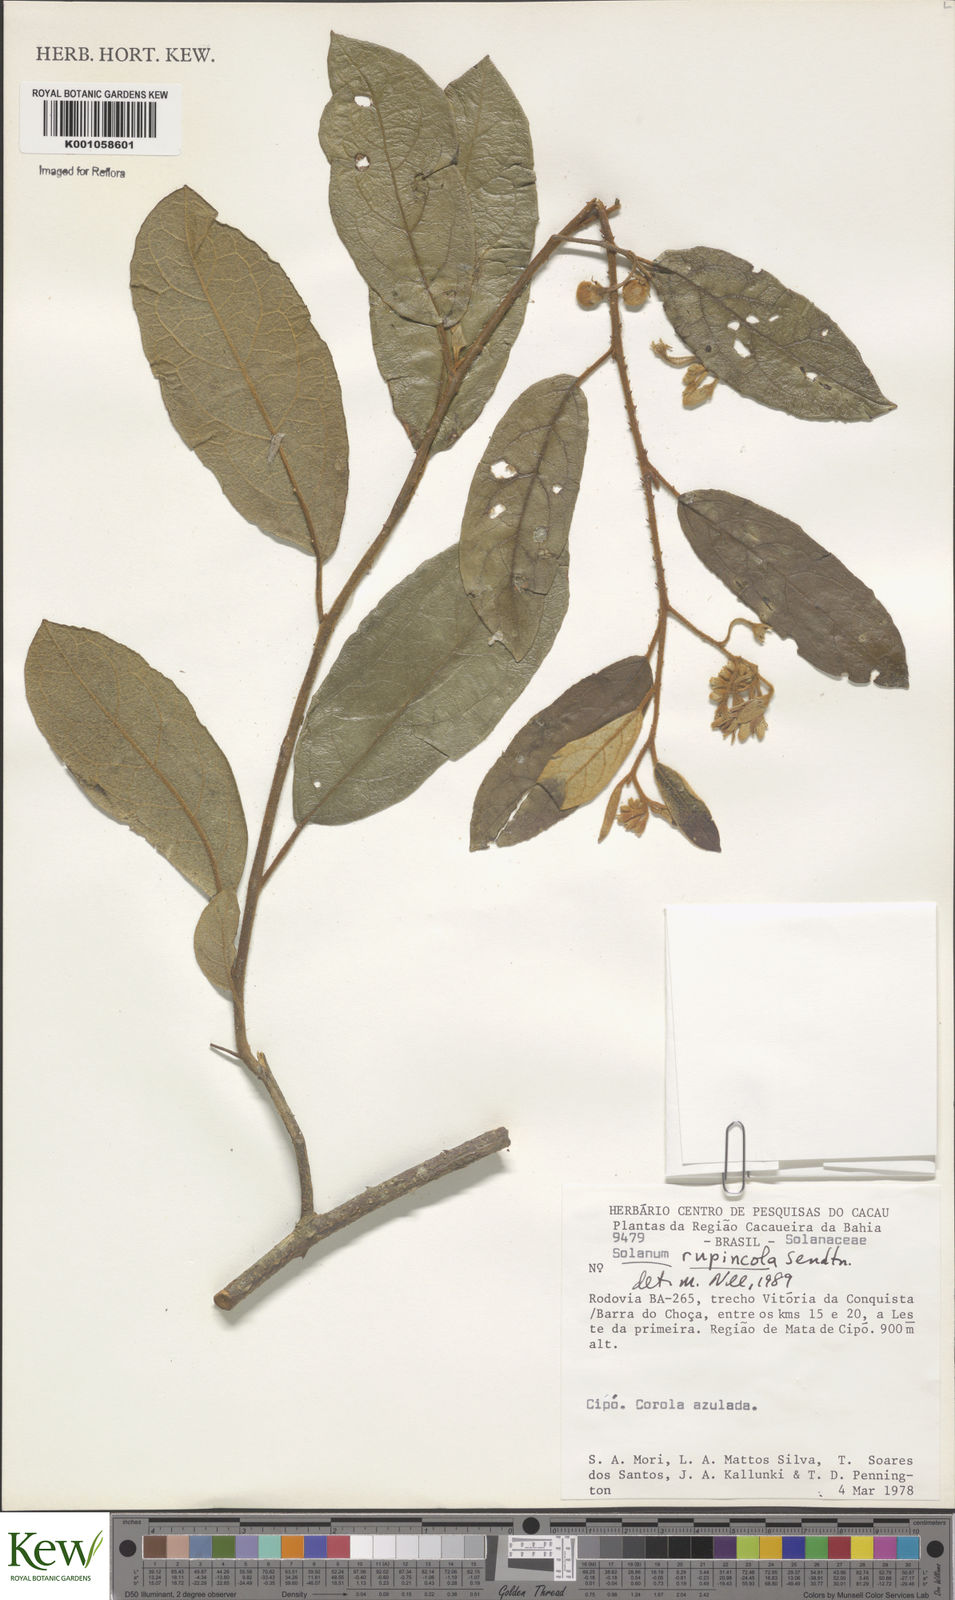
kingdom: Plantae
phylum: Tracheophyta
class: Magnoliopsida
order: Solanales
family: Solanaceae
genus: Solanum
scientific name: Solanum rupincola
